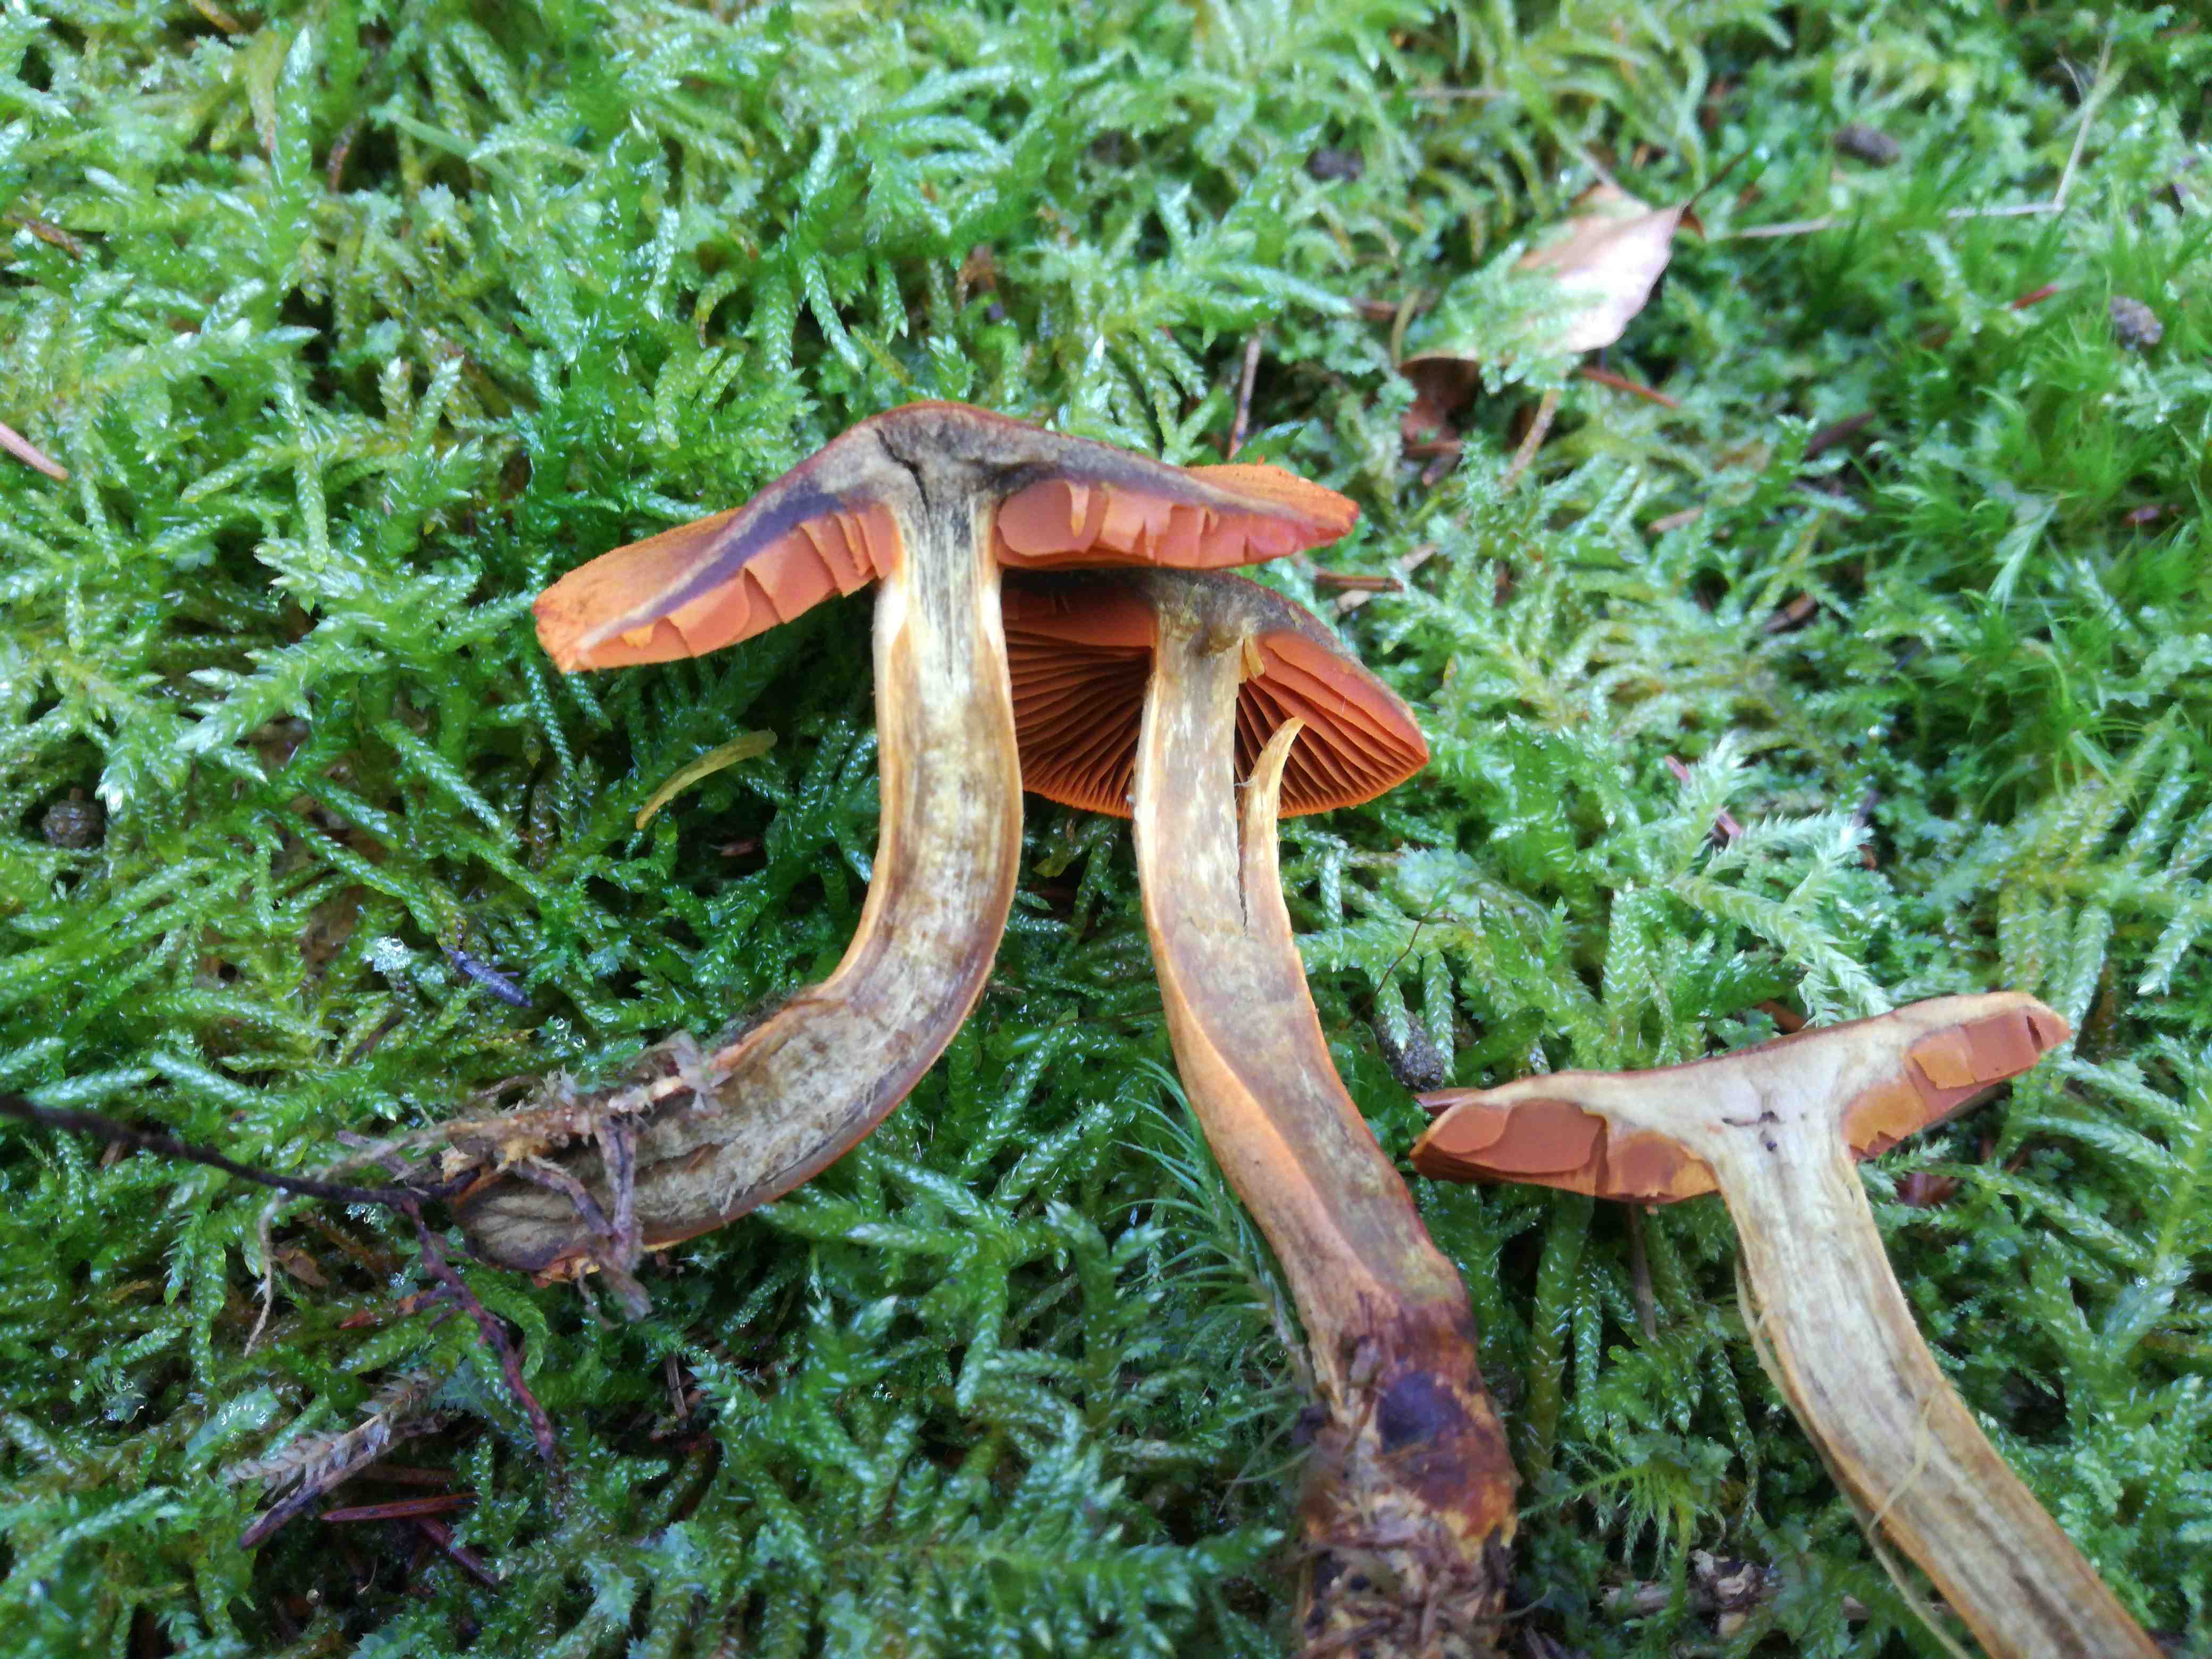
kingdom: Fungi
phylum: Basidiomycota
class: Agaricomycetes
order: Agaricales
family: Cortinariaceae
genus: Cortinarius
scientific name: Cortinarius malicorius
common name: grønkødet slørhat
